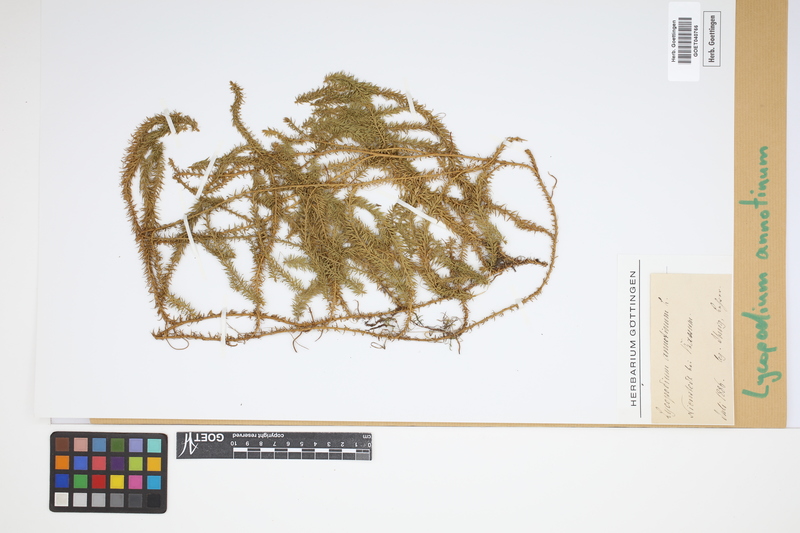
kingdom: Plantae
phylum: Tracheophyta
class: Lycopodiopsida
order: Lycopodiales
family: Lycopodiaceae
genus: Spinulum
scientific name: Spinulum annotinum
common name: Interrupted club-moss
